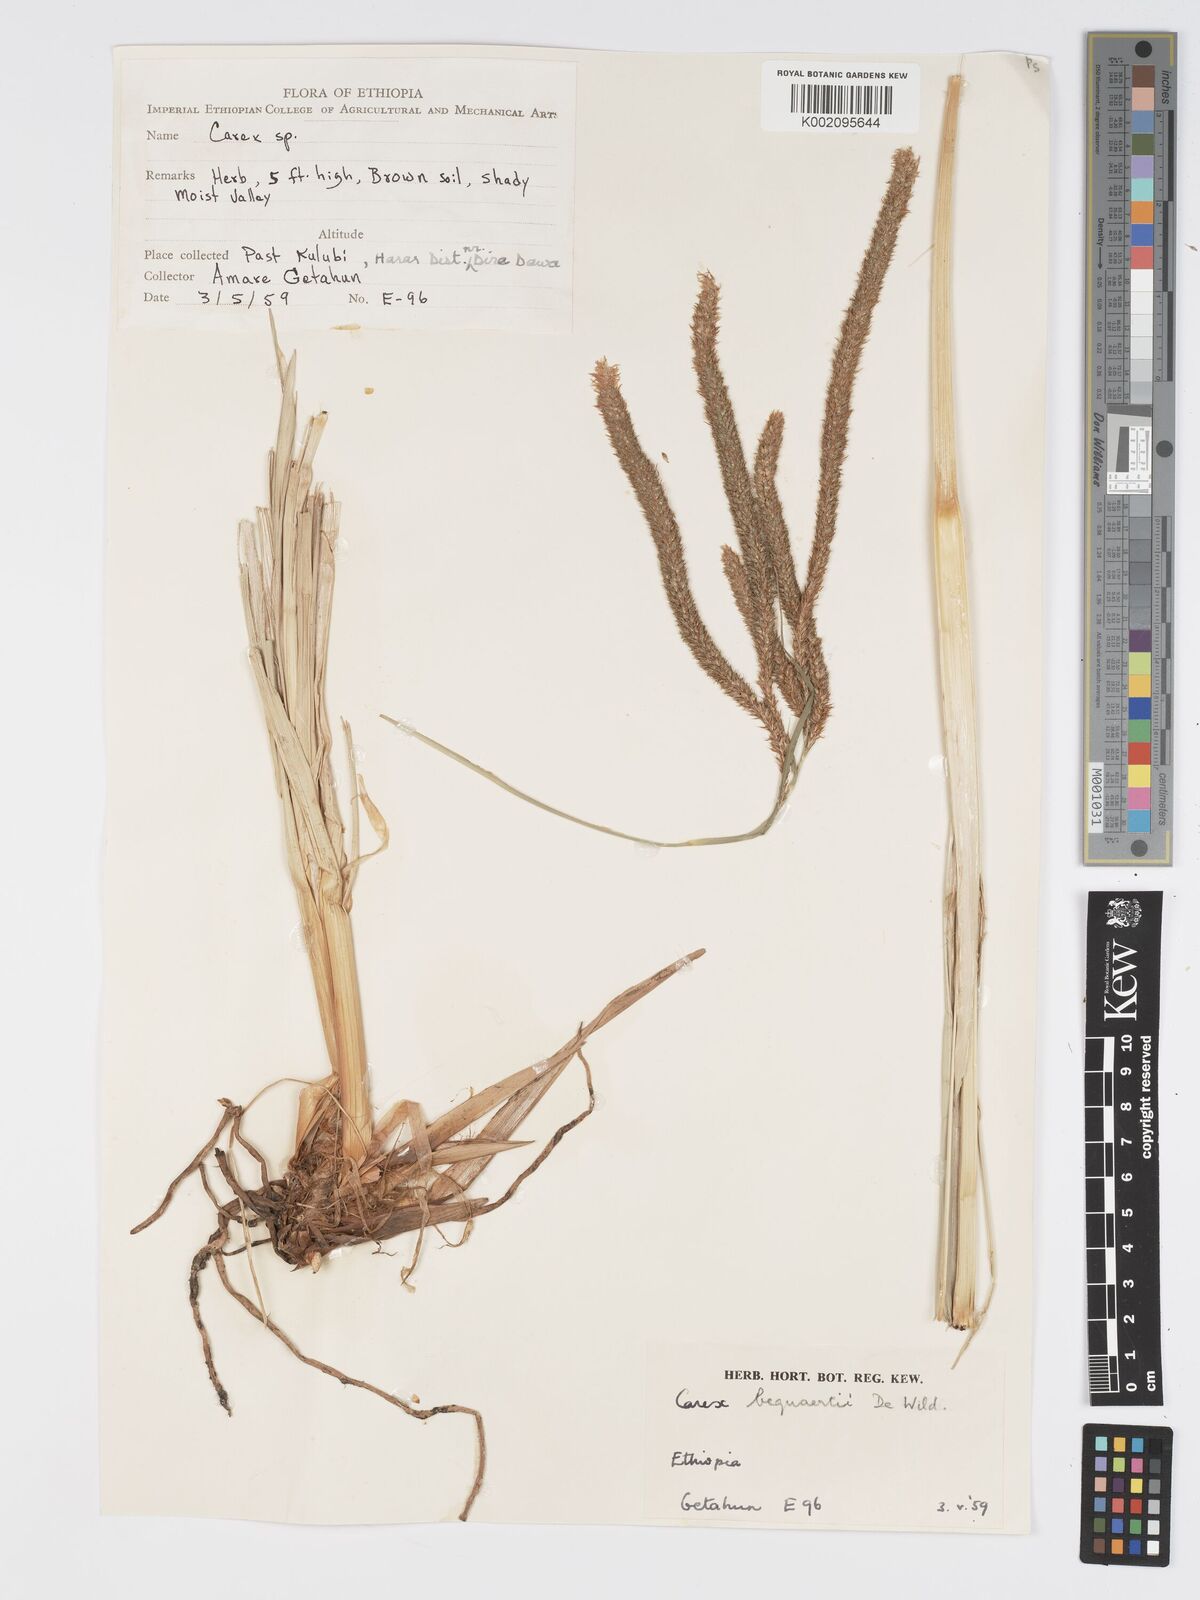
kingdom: Plantae
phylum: Tracheophyta
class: Liliopsida
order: Poales
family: Cyperaceae
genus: Carex
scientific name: Carex bequaertii
